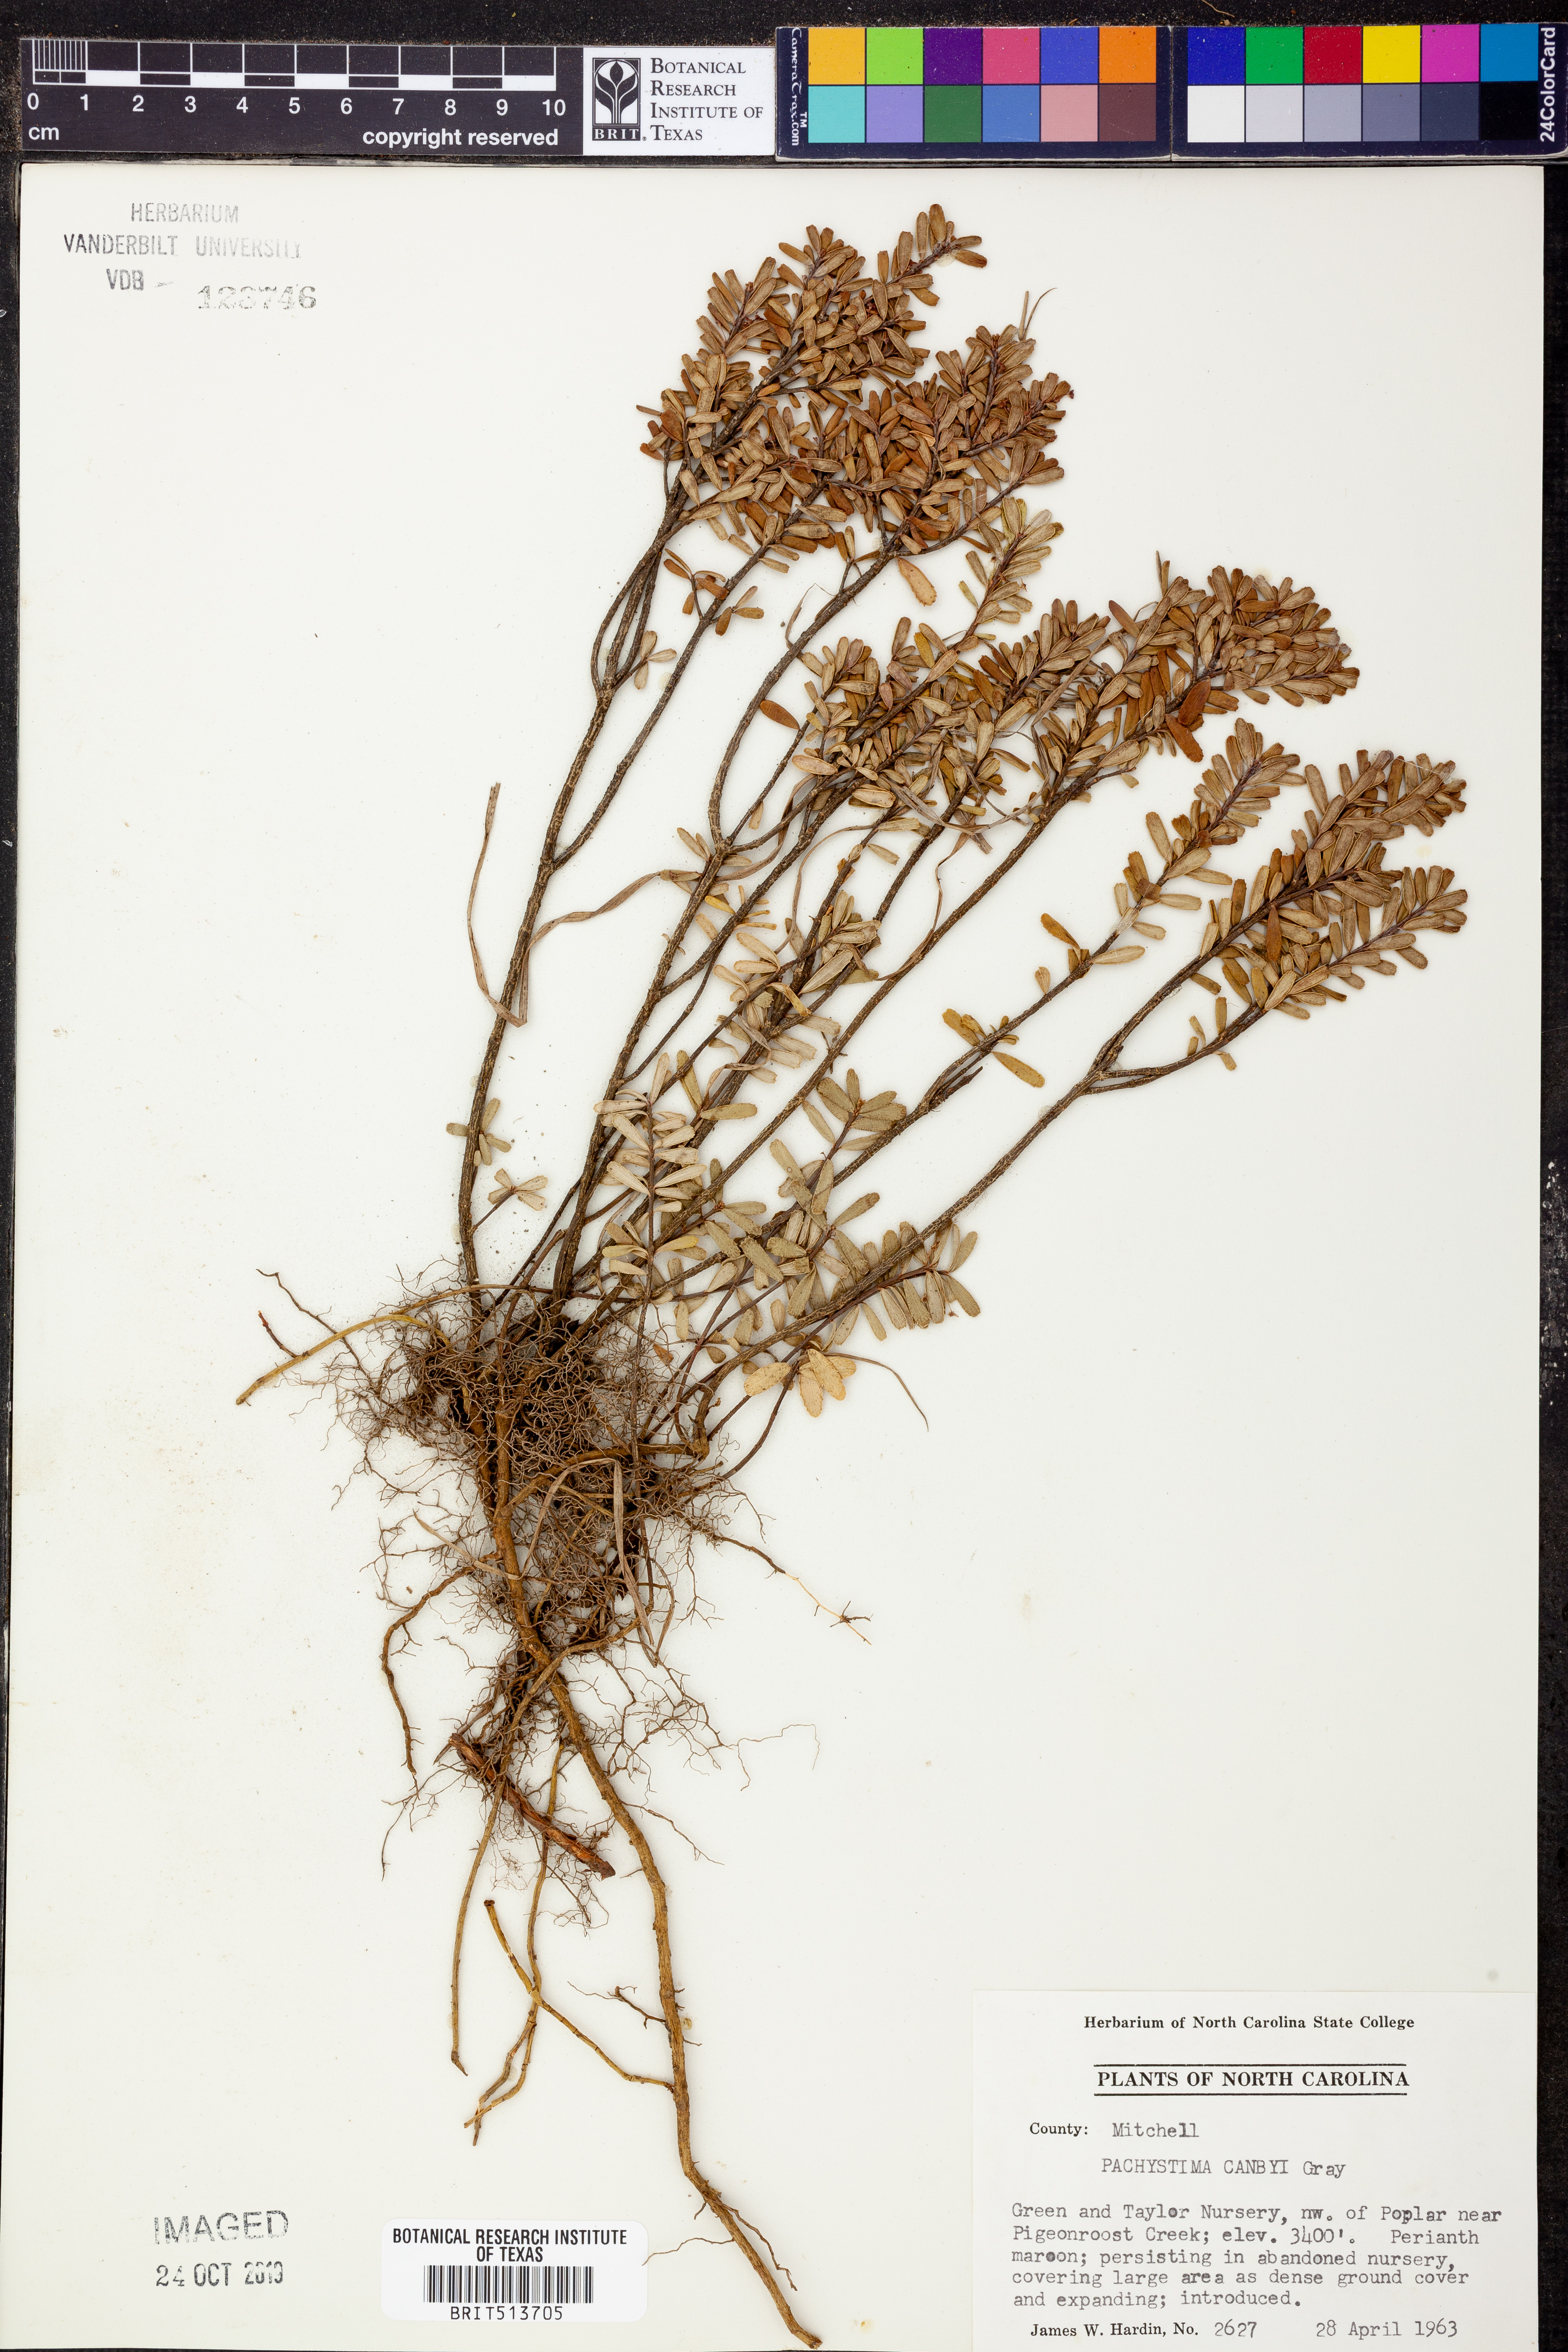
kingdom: Plantae
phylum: Tracheophyta
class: Magnoliopsida
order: Celastrales
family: Celastraceae
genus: Paxistima
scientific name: Paxistima canbyi
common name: Cliffgreen
